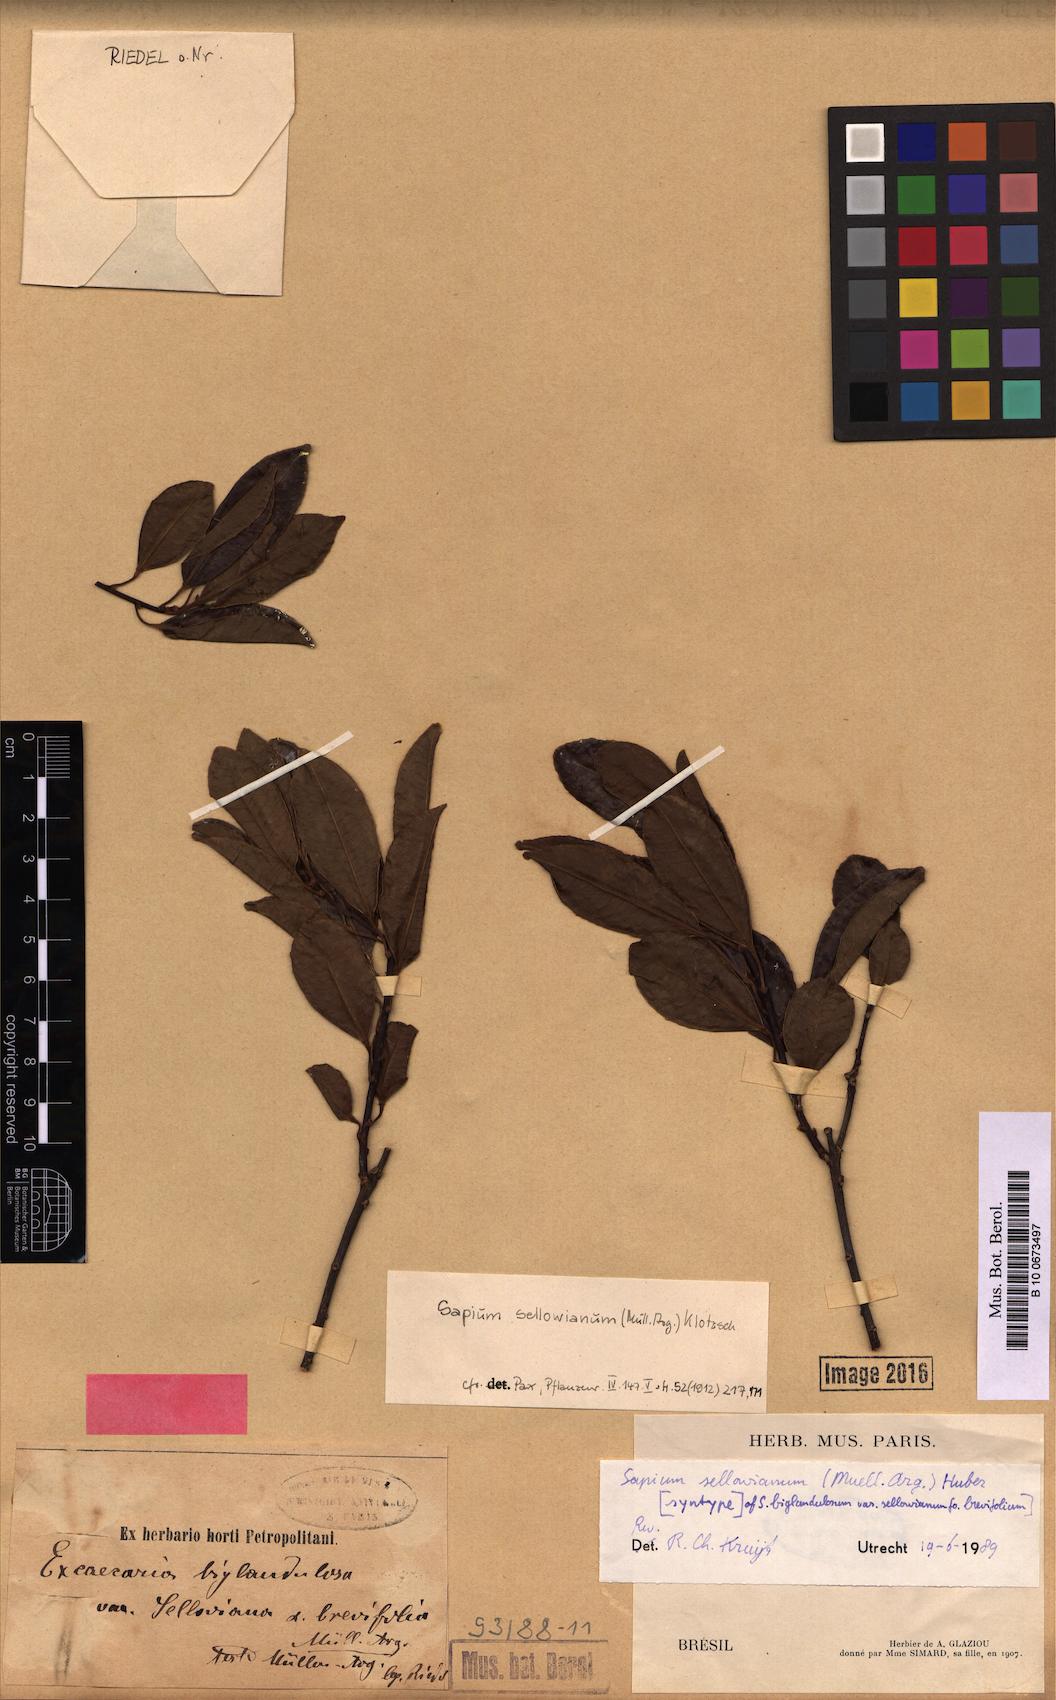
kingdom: Plantae
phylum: Tracheophyta
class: Magnoliopsida
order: Malpighiales
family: Euphorbiaceae
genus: Sapium
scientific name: Sapium sellowianum
